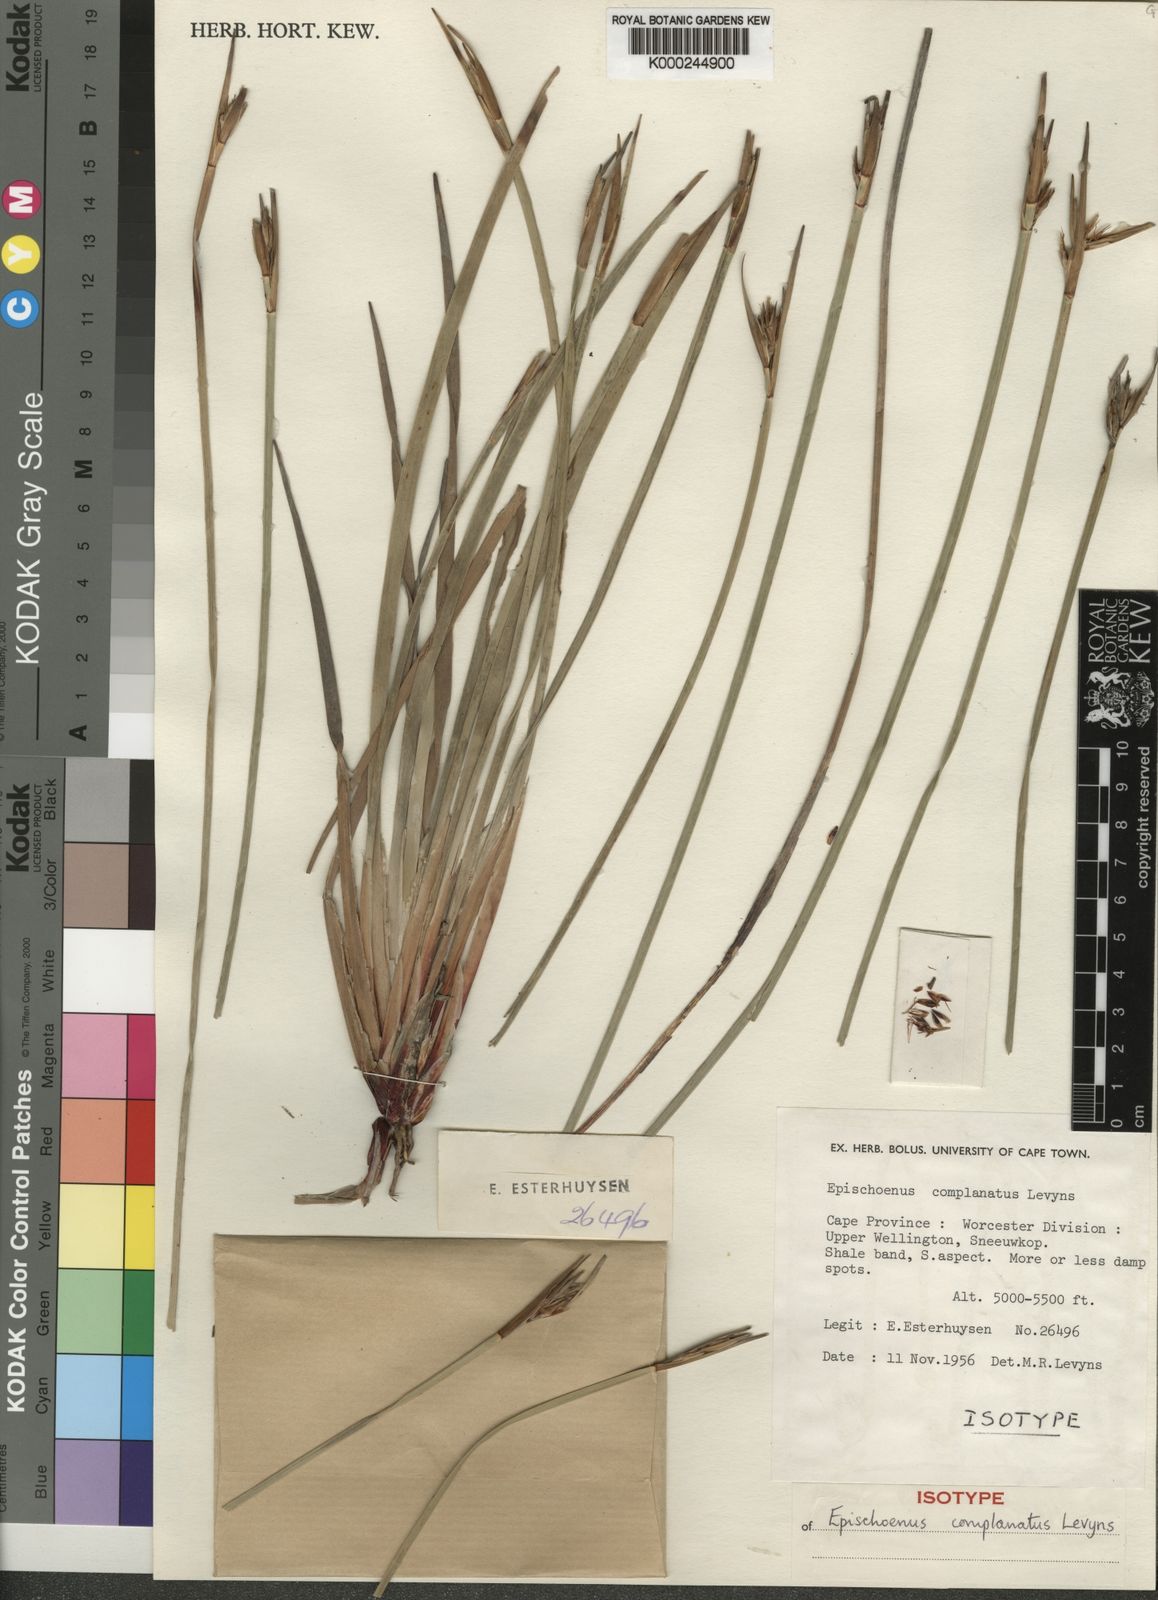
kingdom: Plantae
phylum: Tracheophyta
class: Liliopsida
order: Poales
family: Cyperaceae
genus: Schoenus
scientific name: Schoenus complanatus
